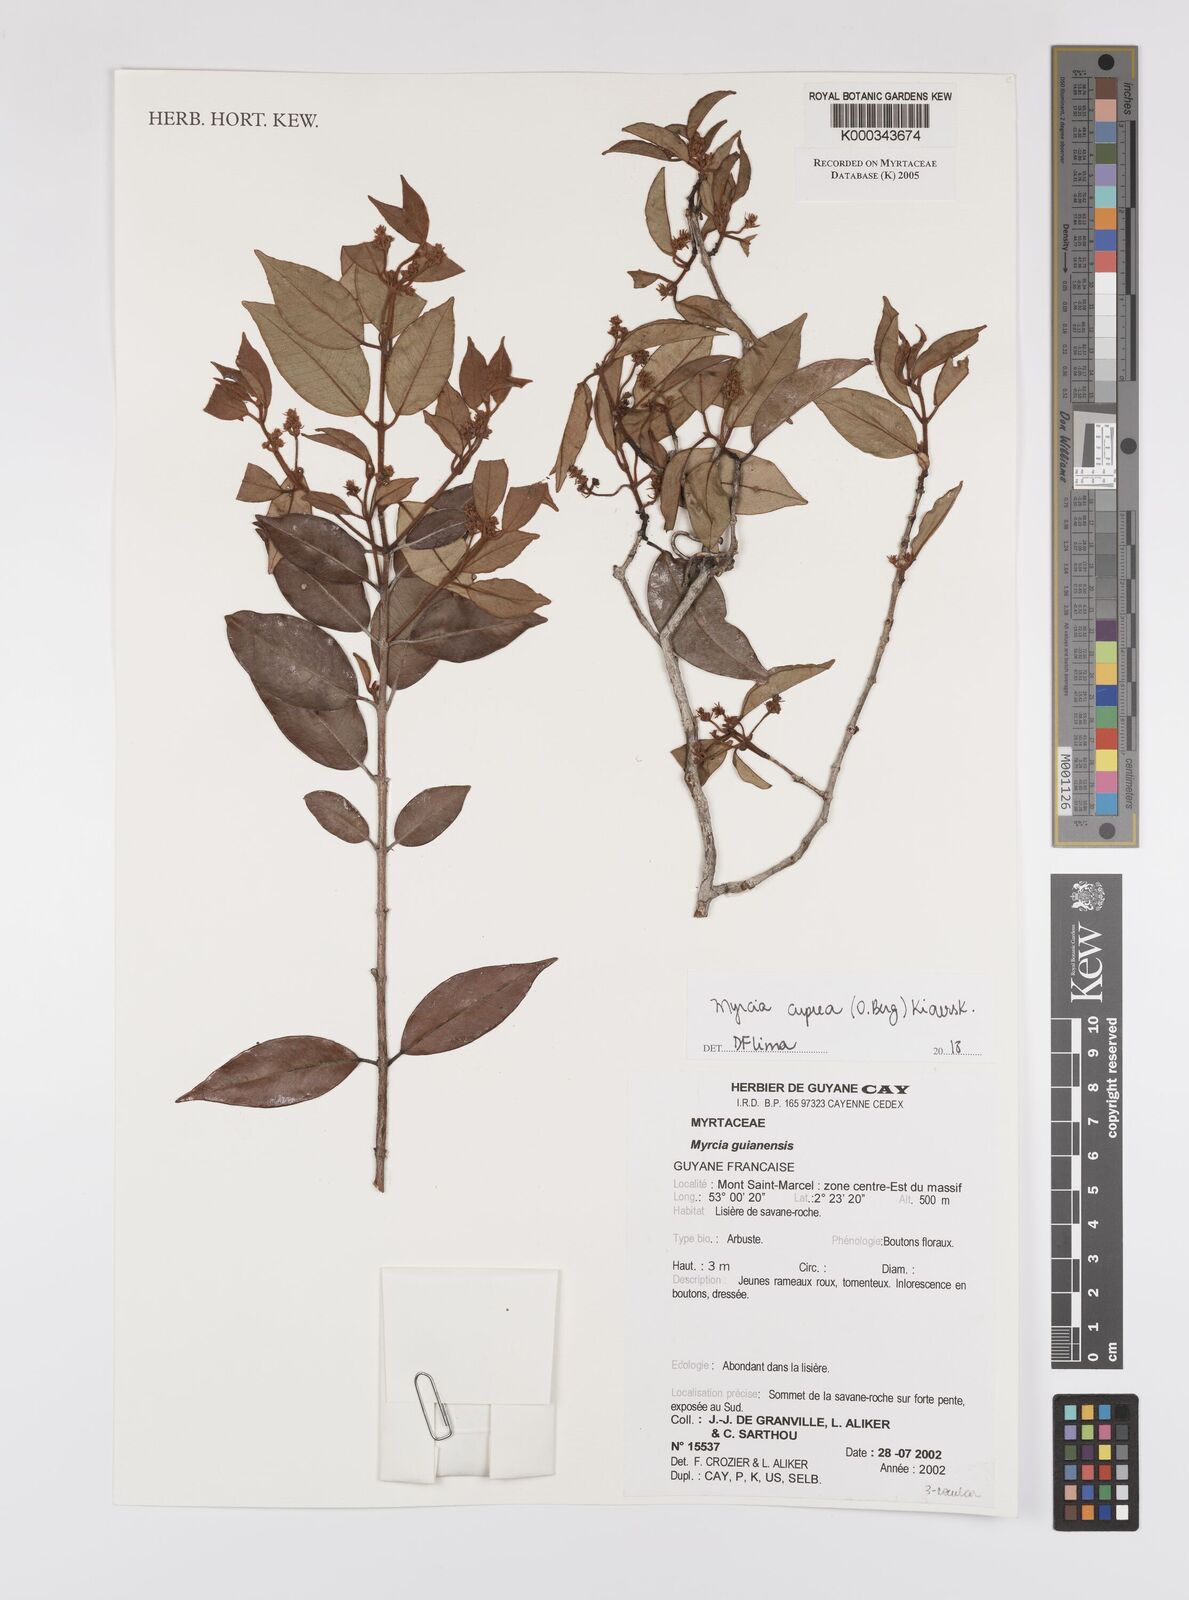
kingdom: Plantae
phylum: Tracheophyta
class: Magnoliopsida
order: Myrtales
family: Myrtaceae
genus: Myrcia
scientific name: Myrcia guianensis
